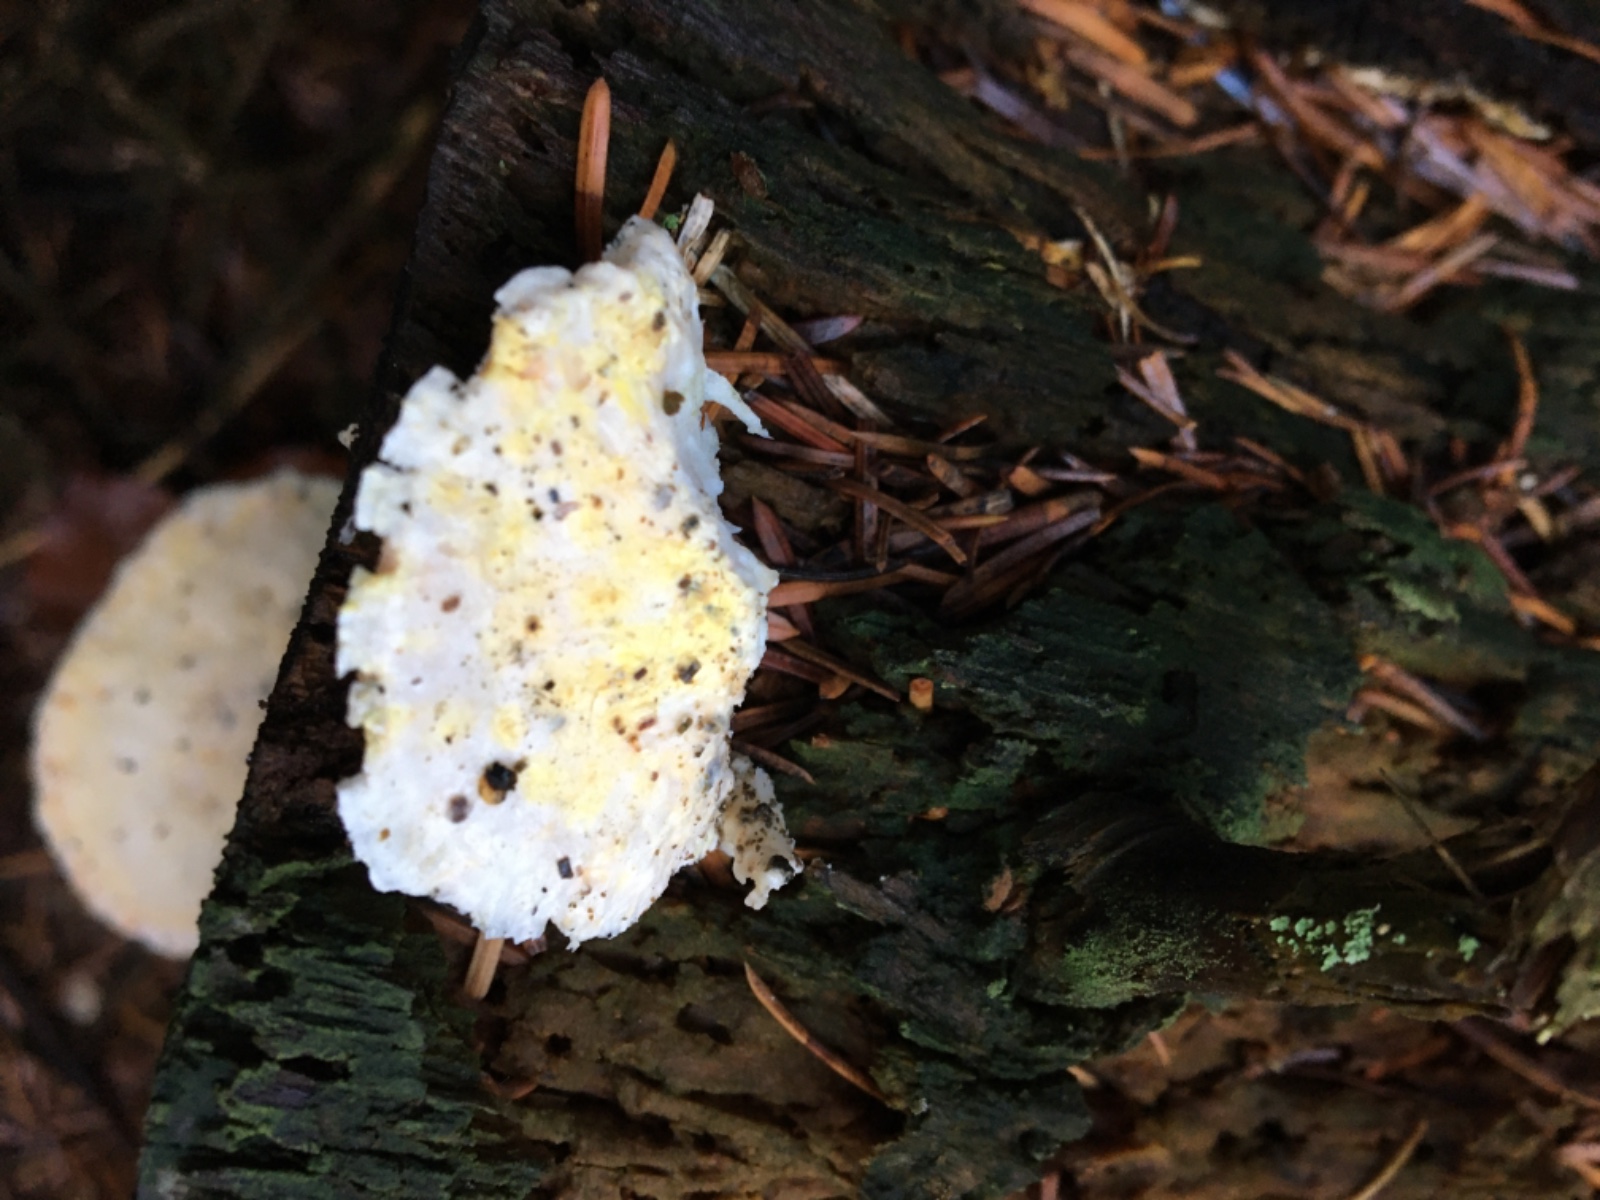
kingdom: Fungi
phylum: Basidiomycota
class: Agaricomycetes
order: Polyporales
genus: Amaropostia
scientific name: Amaropostia stiptica
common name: bitter kødporesvamp
